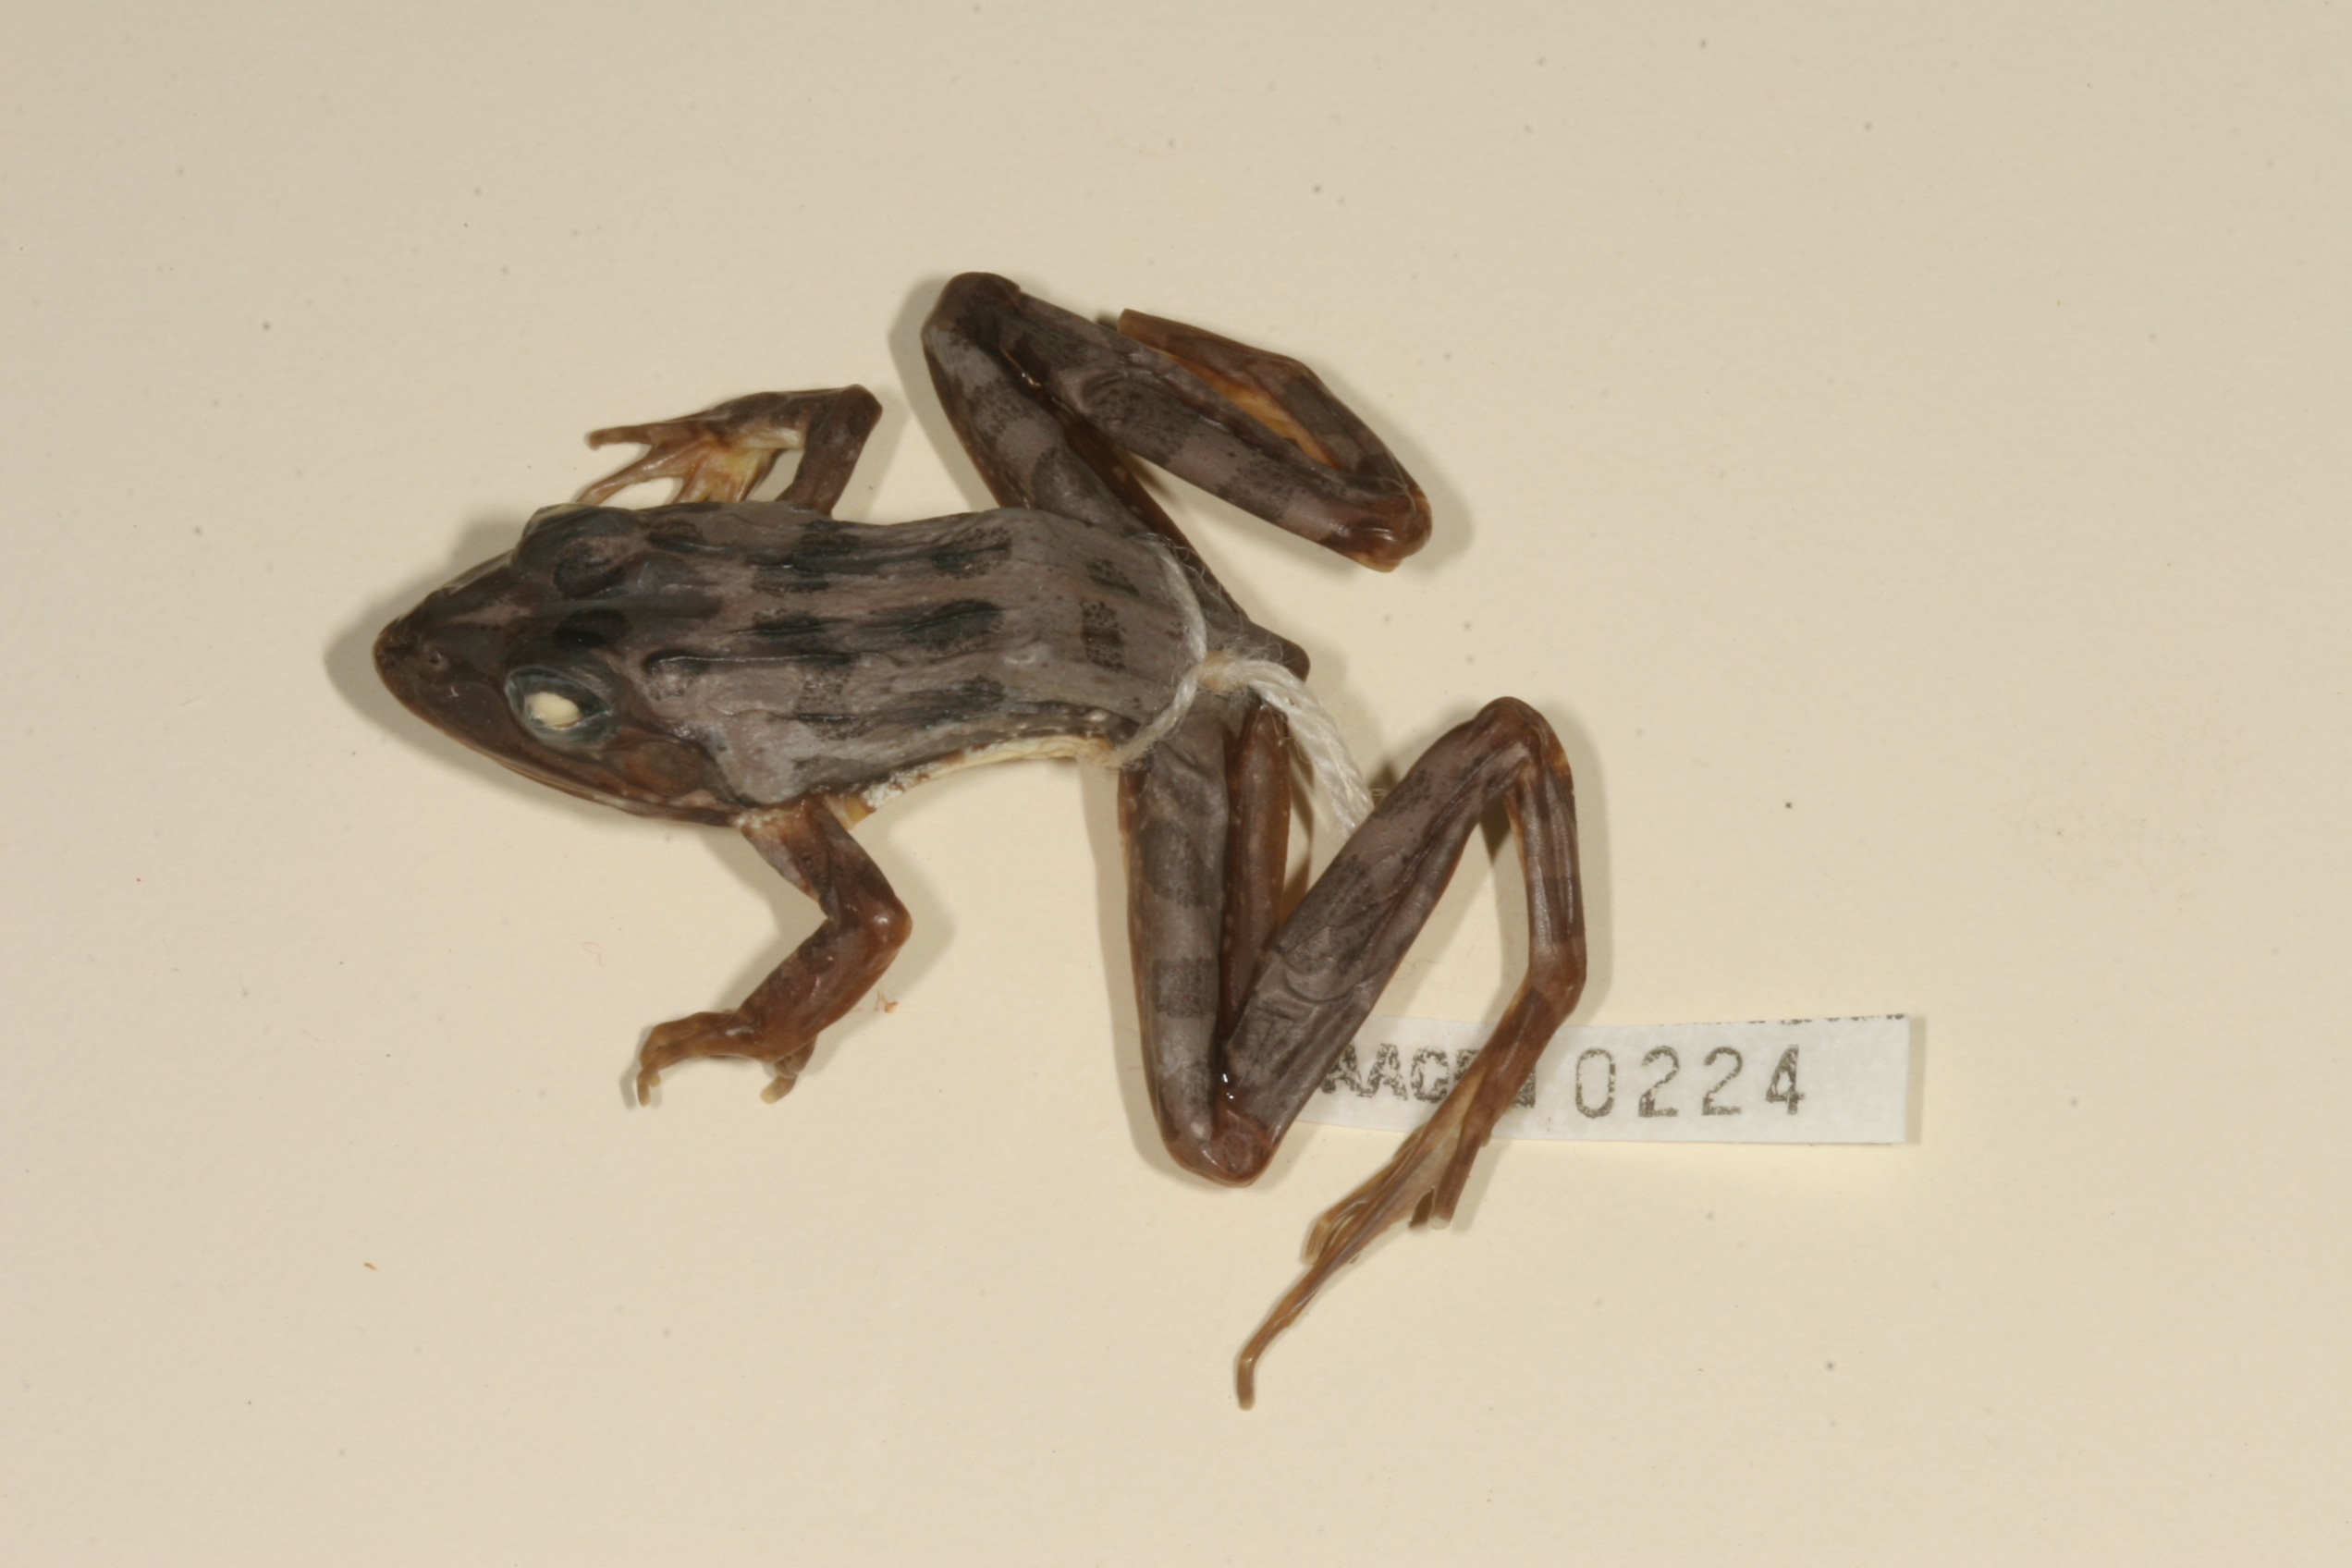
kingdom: Animalia
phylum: Chordata
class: Amphibia
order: Anura
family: Pyxicephalidae
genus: Amietia
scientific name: Amietia angolensis
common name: Dusky-throated frog
